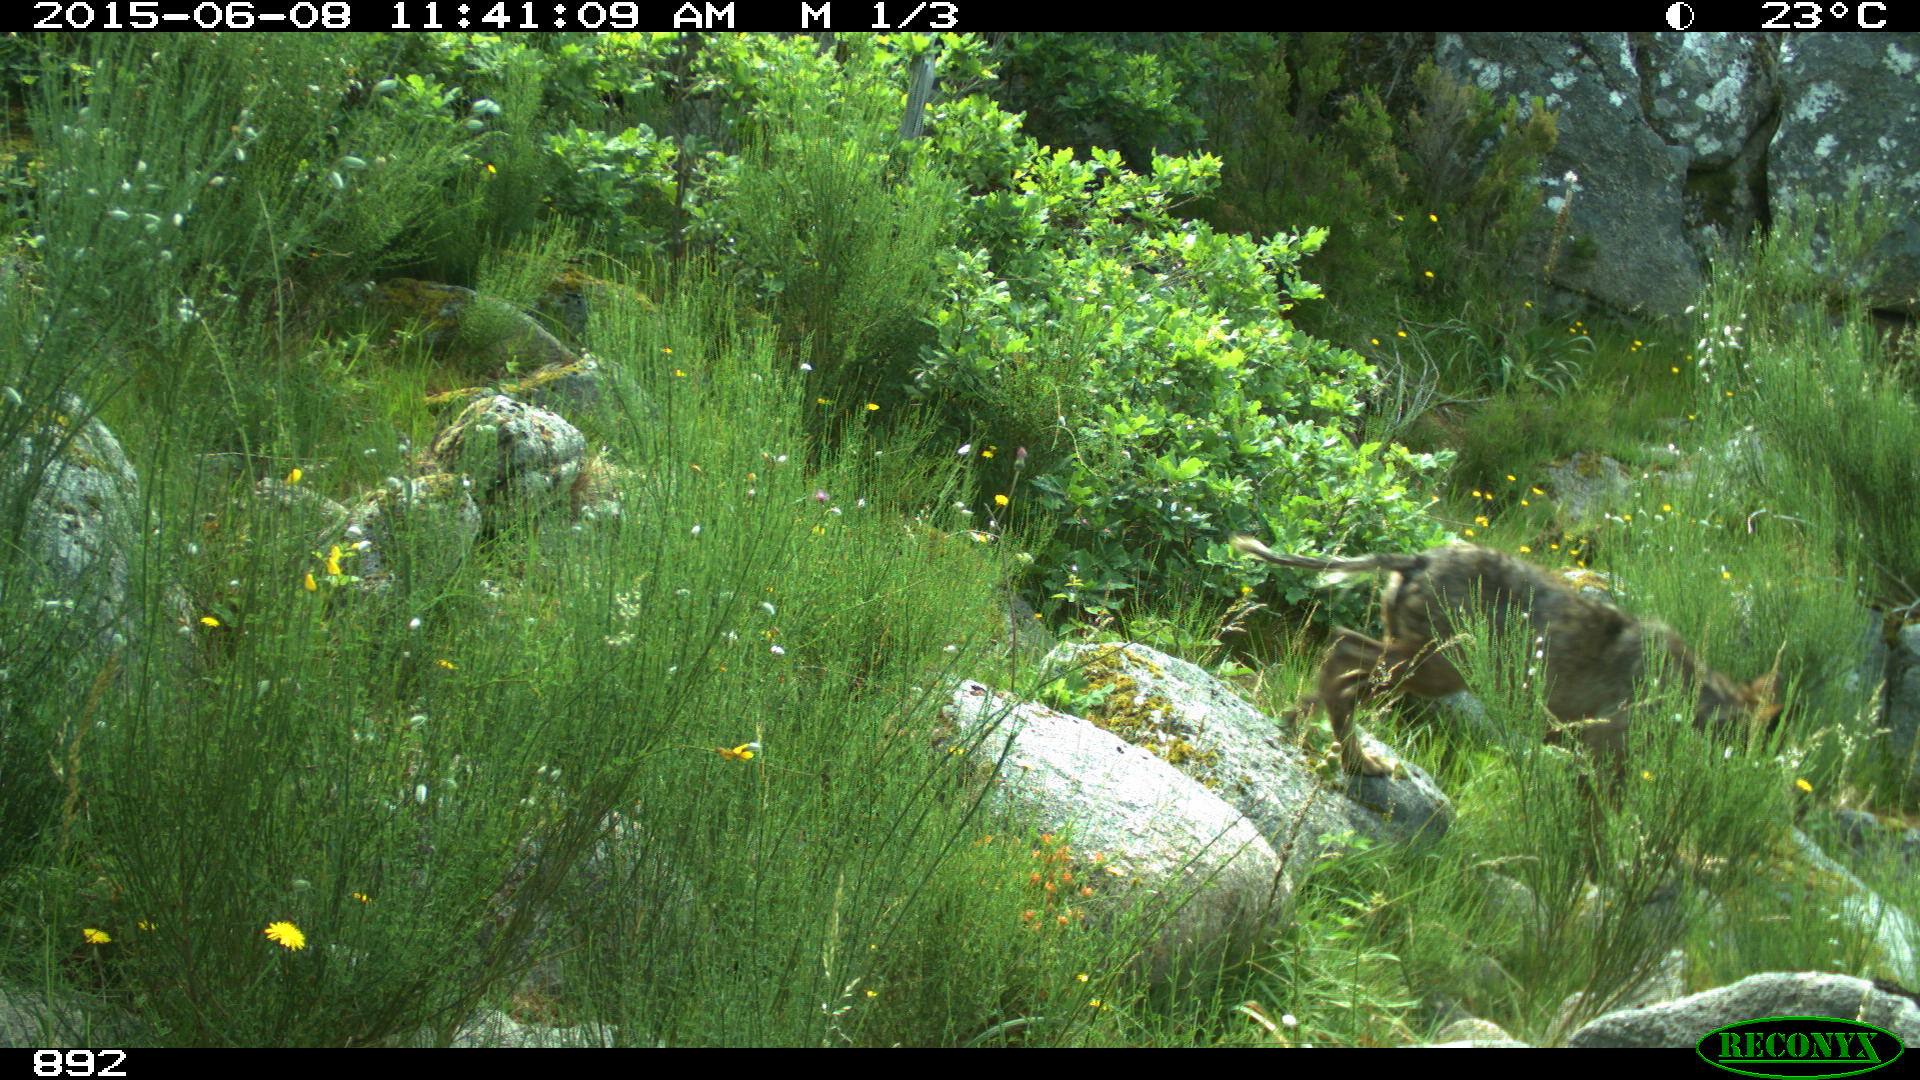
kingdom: Animalia
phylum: Chordata
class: Mammalia
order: Carnivora
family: Canidae
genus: Canis
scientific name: Canis lupus
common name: Gray wolf
